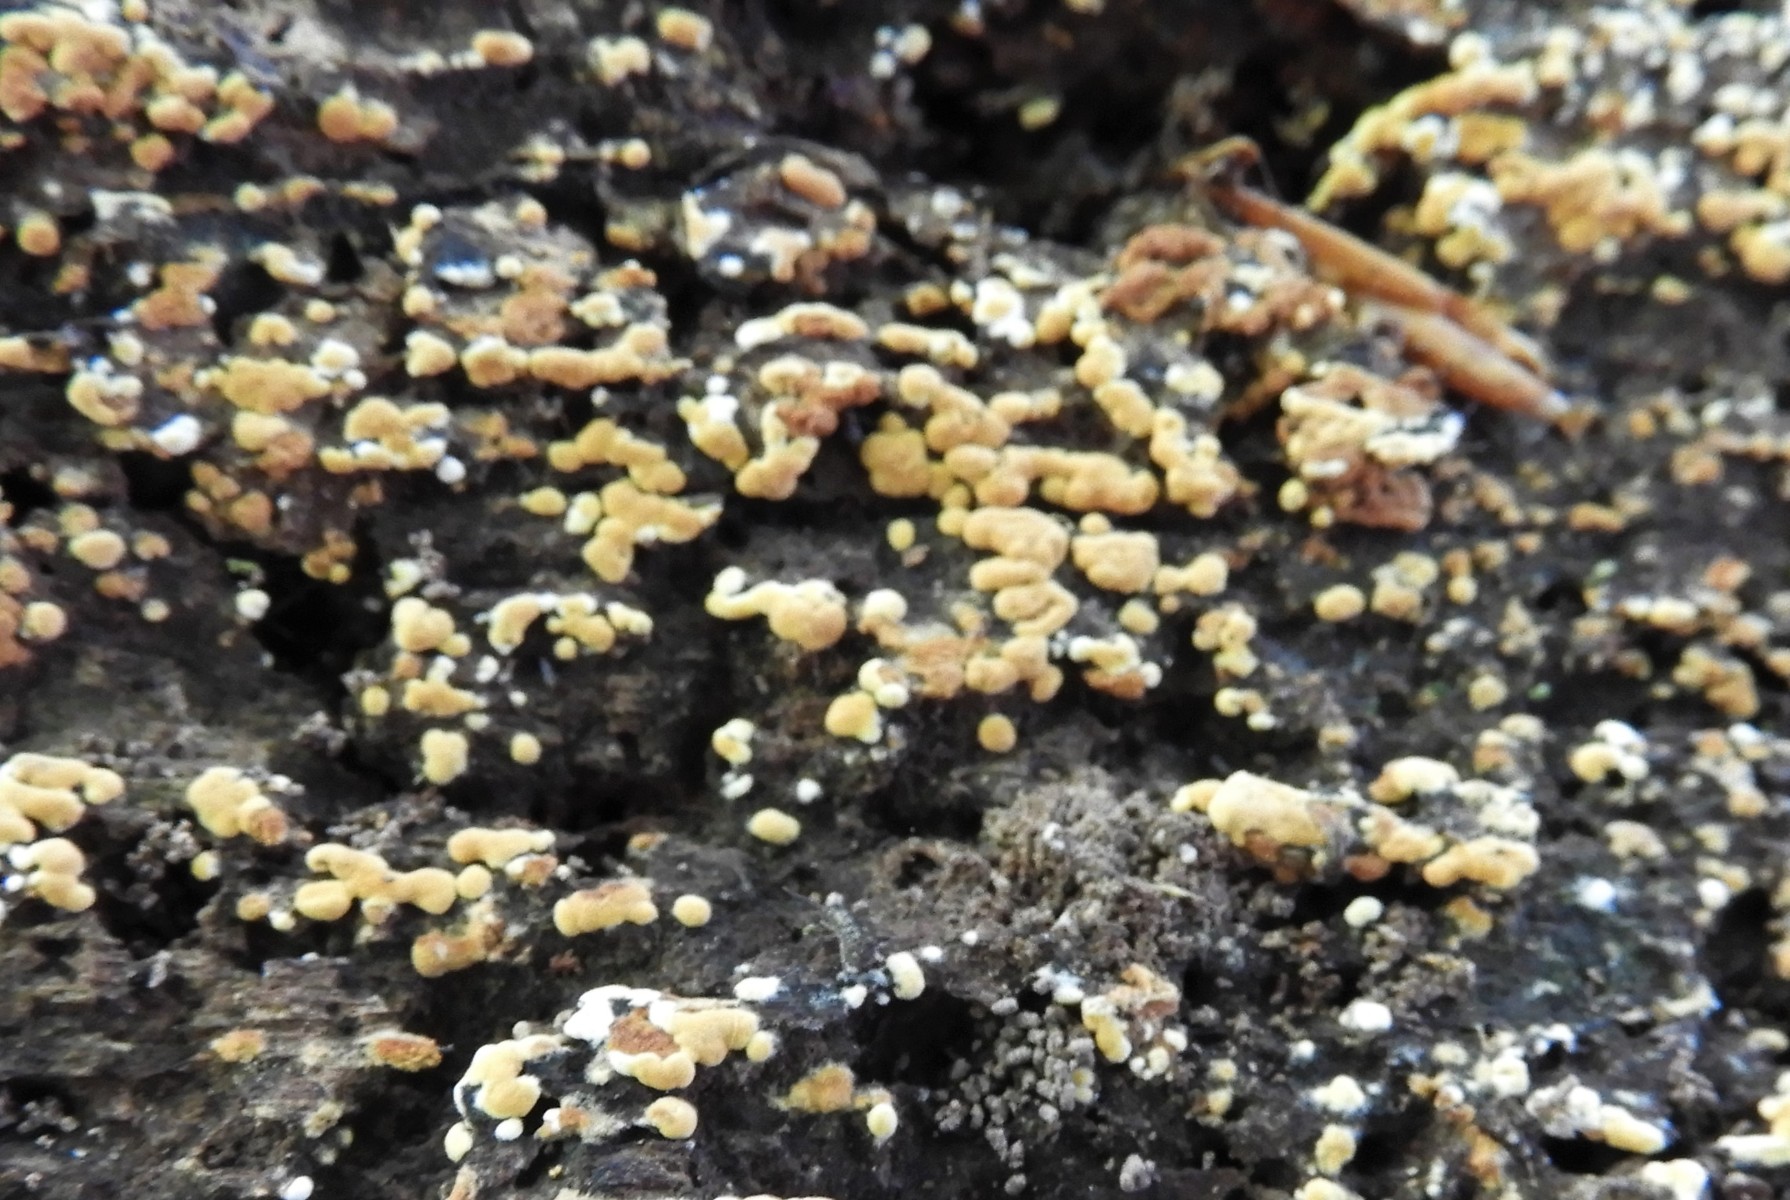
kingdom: Fungi
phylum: Basidiomycota
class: Agaricomycetes
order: Cantharellales
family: Botryobasidiaceae
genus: Botryobasidium
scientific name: Botryobasidium aureum
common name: gylden spindhinde
